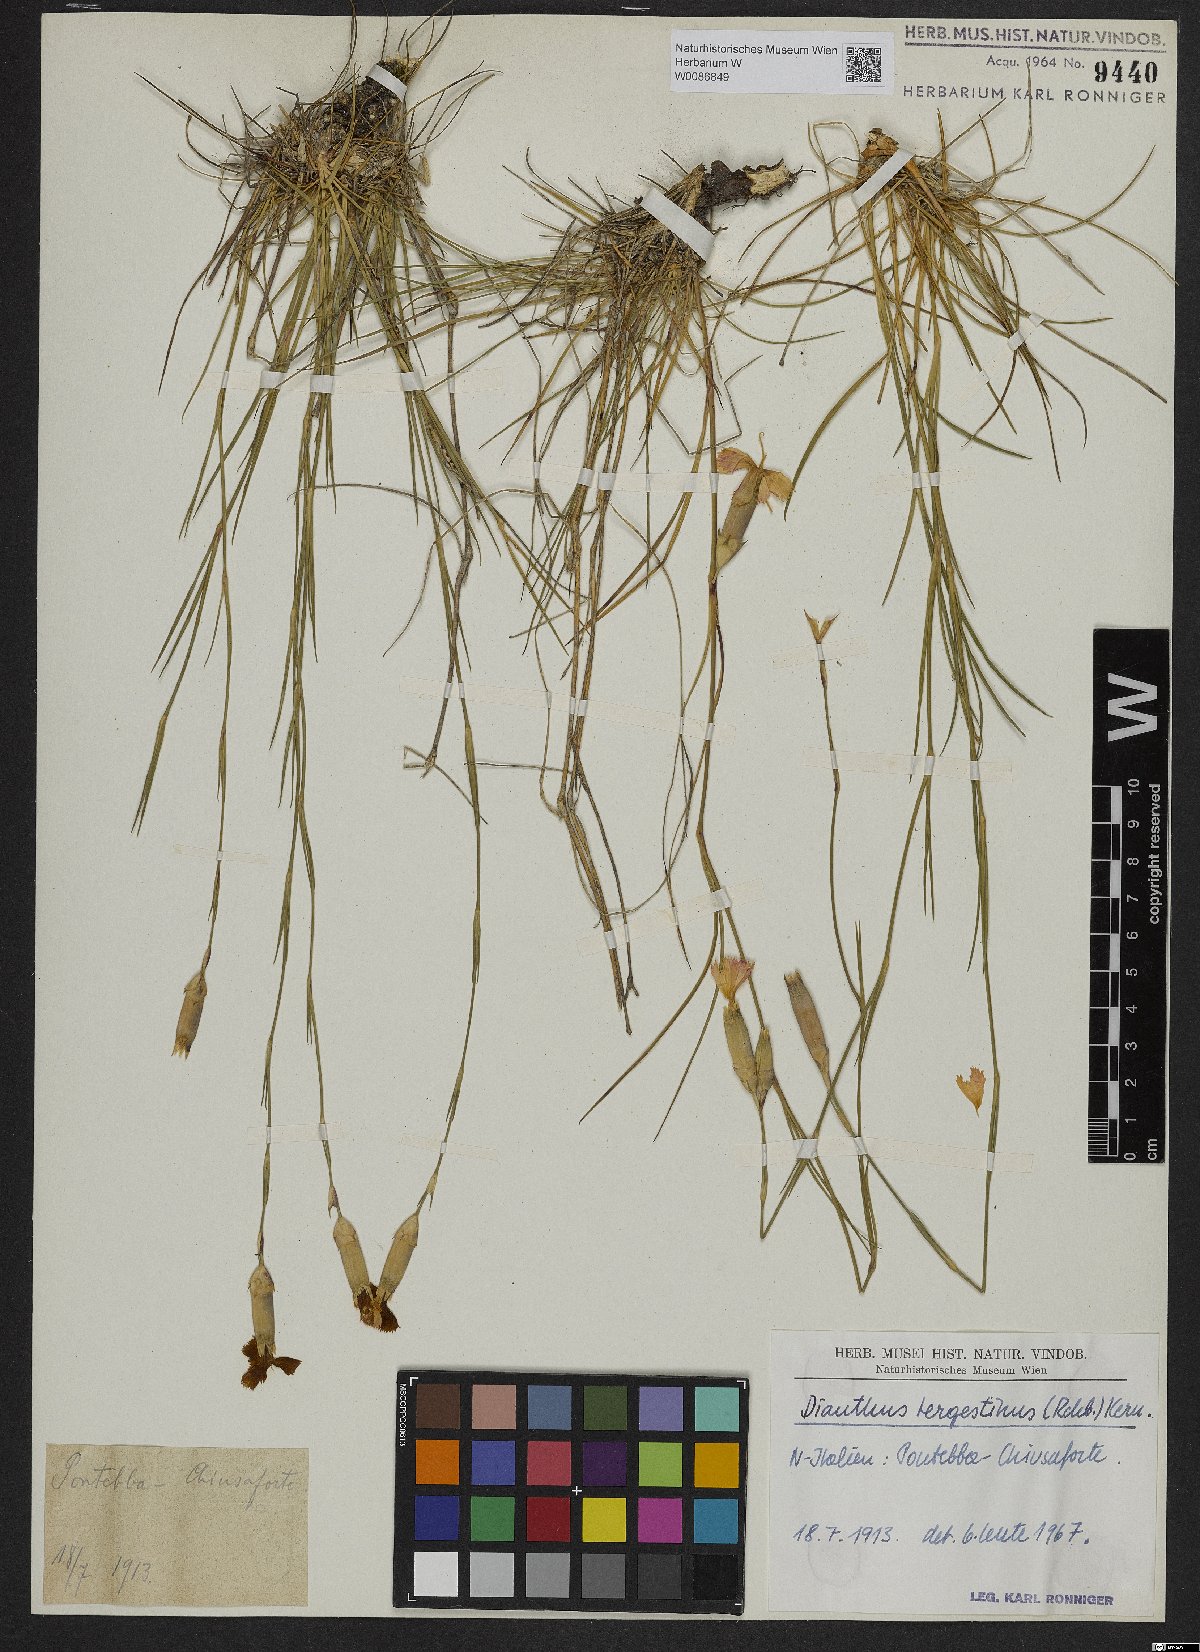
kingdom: Plantae
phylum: Tracheophyta
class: Magnoliopsida
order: Caryophyllales
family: Caryophyllaceae
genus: Dianthus
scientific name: Dianthus sylvestris
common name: Wood pink
